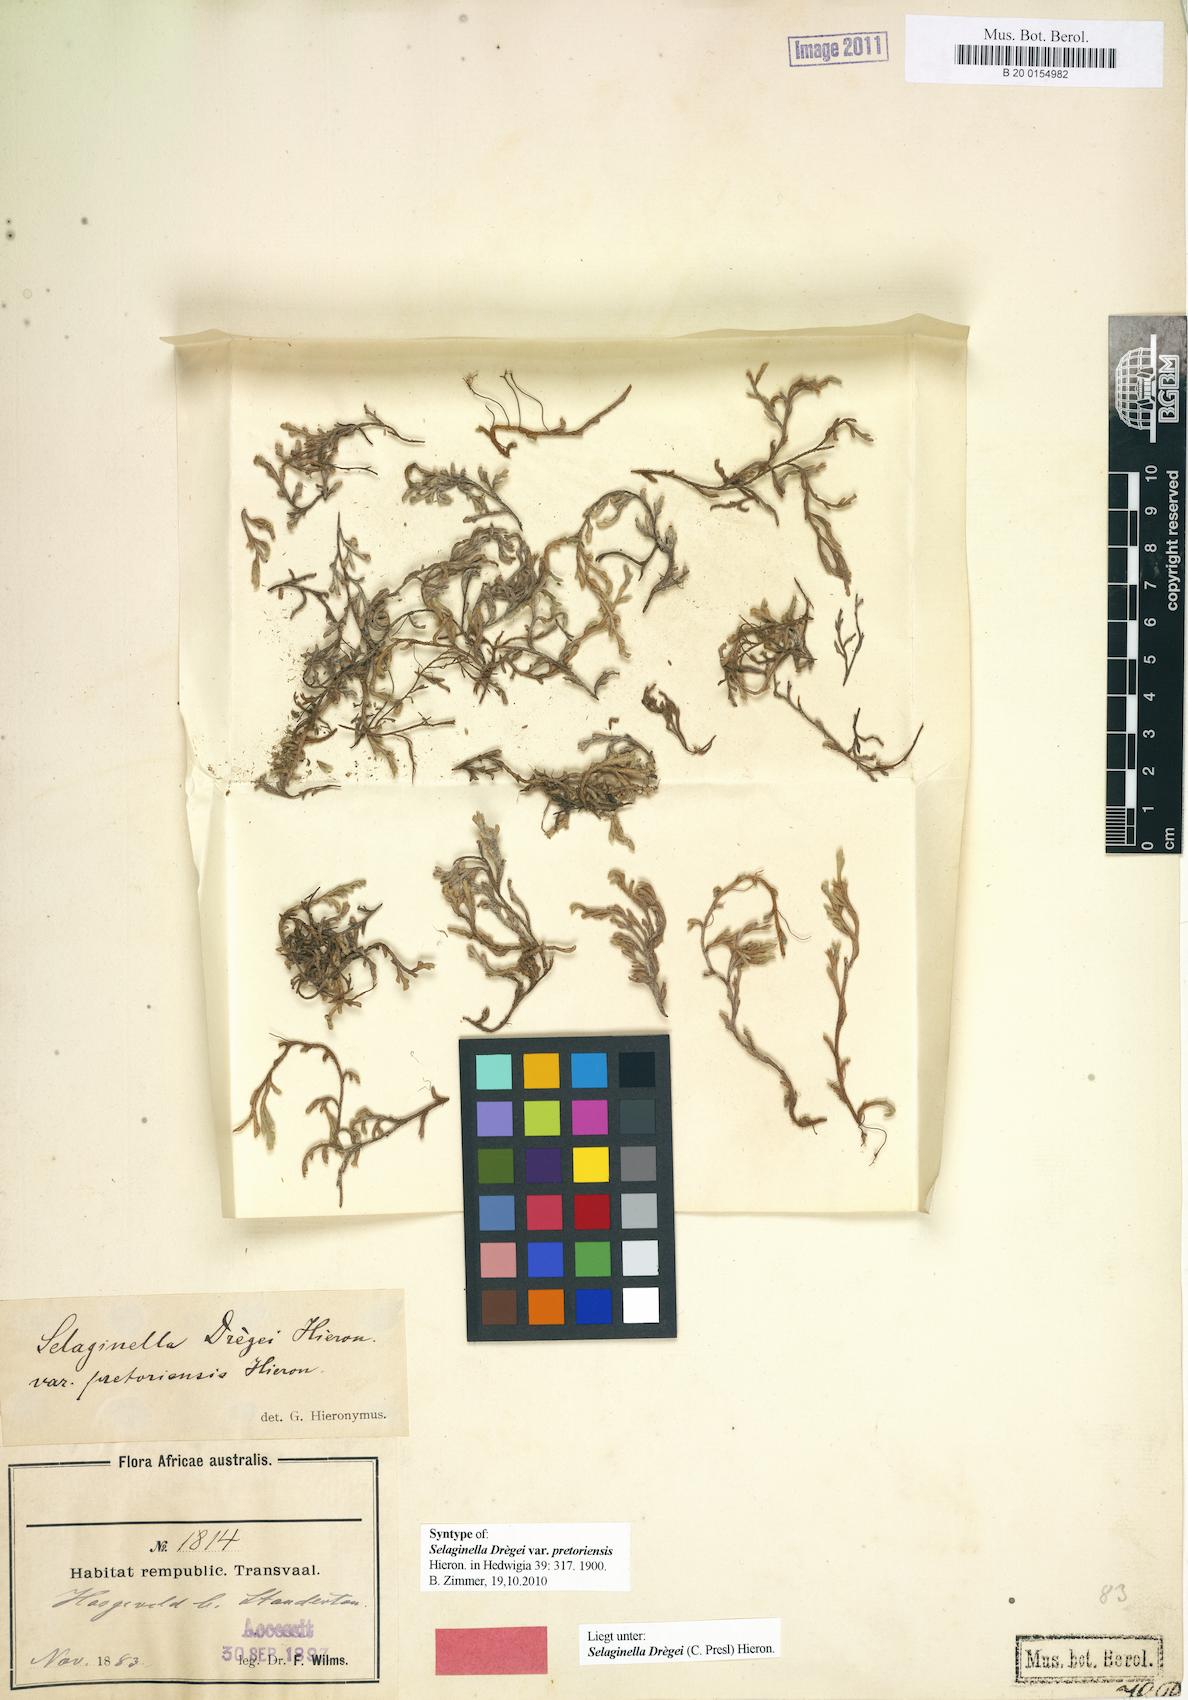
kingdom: Plantae
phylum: Tracheophyta
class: Lycopodiopsida
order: Selaginellales
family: Selaginellaceae
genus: Selaginella
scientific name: Selaginella dregei
